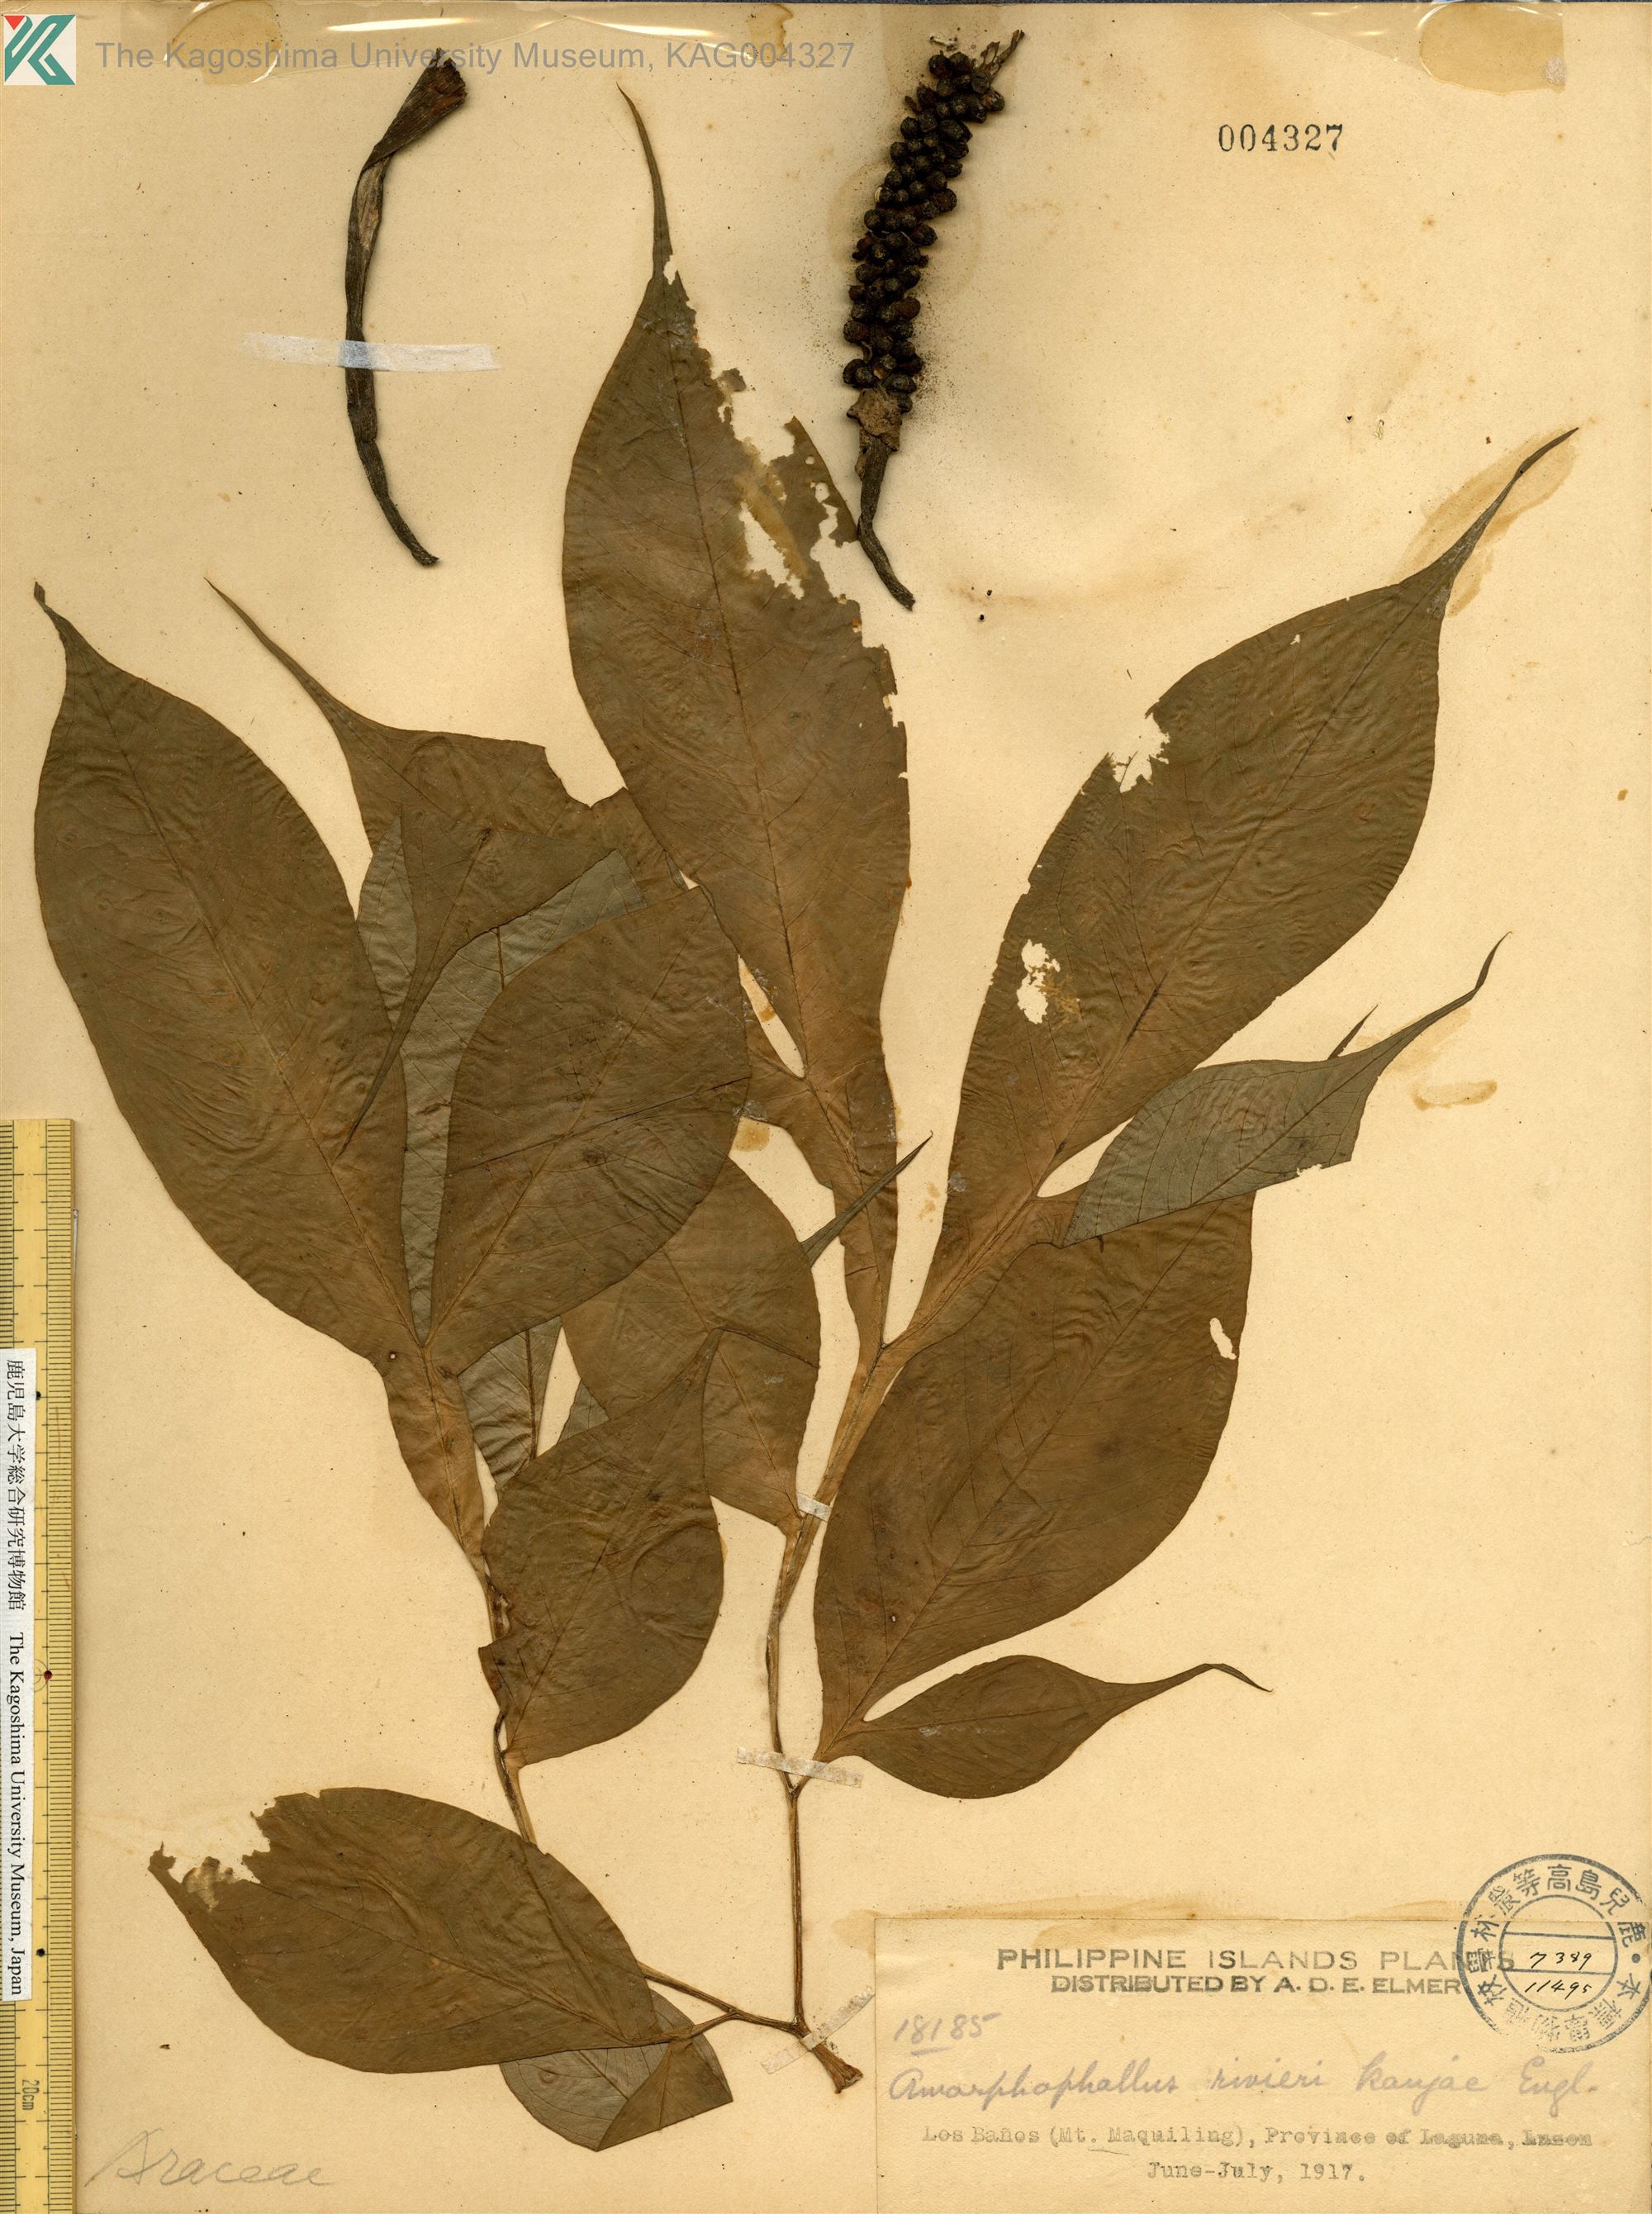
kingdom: Plantae
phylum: Tracheophyta
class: Liliopsida
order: Alismatales
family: Araceae
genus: Amorphophallus
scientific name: Amorphophallus konjac
